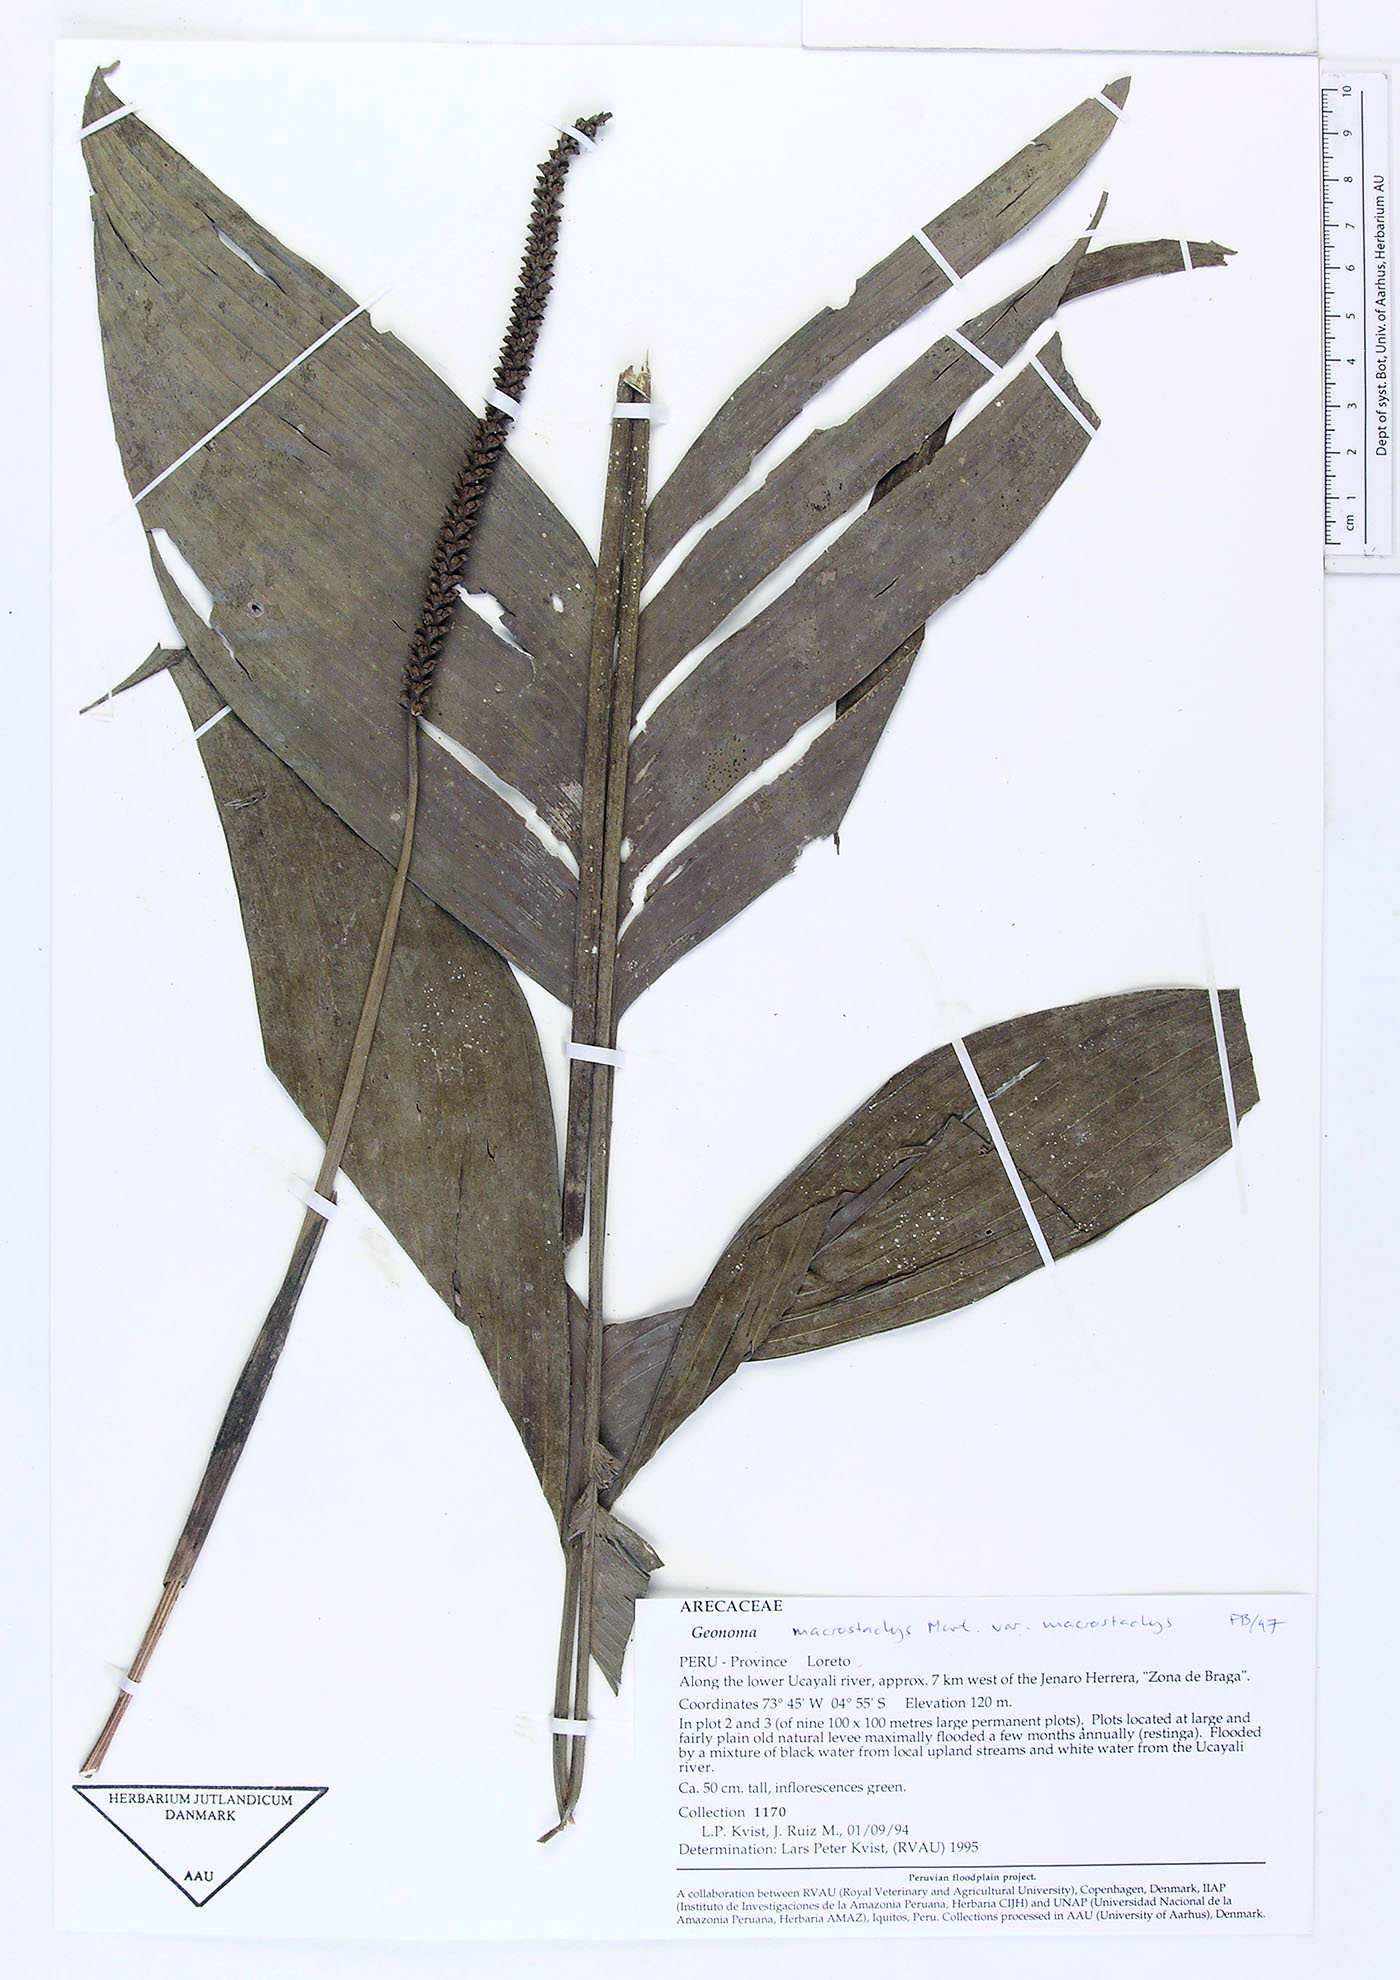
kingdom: Plantae
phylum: Tracheophyta
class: Liliopsida
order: Arecales
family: Arecaceae
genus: Geonoma
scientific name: Geonoma macrostachys
